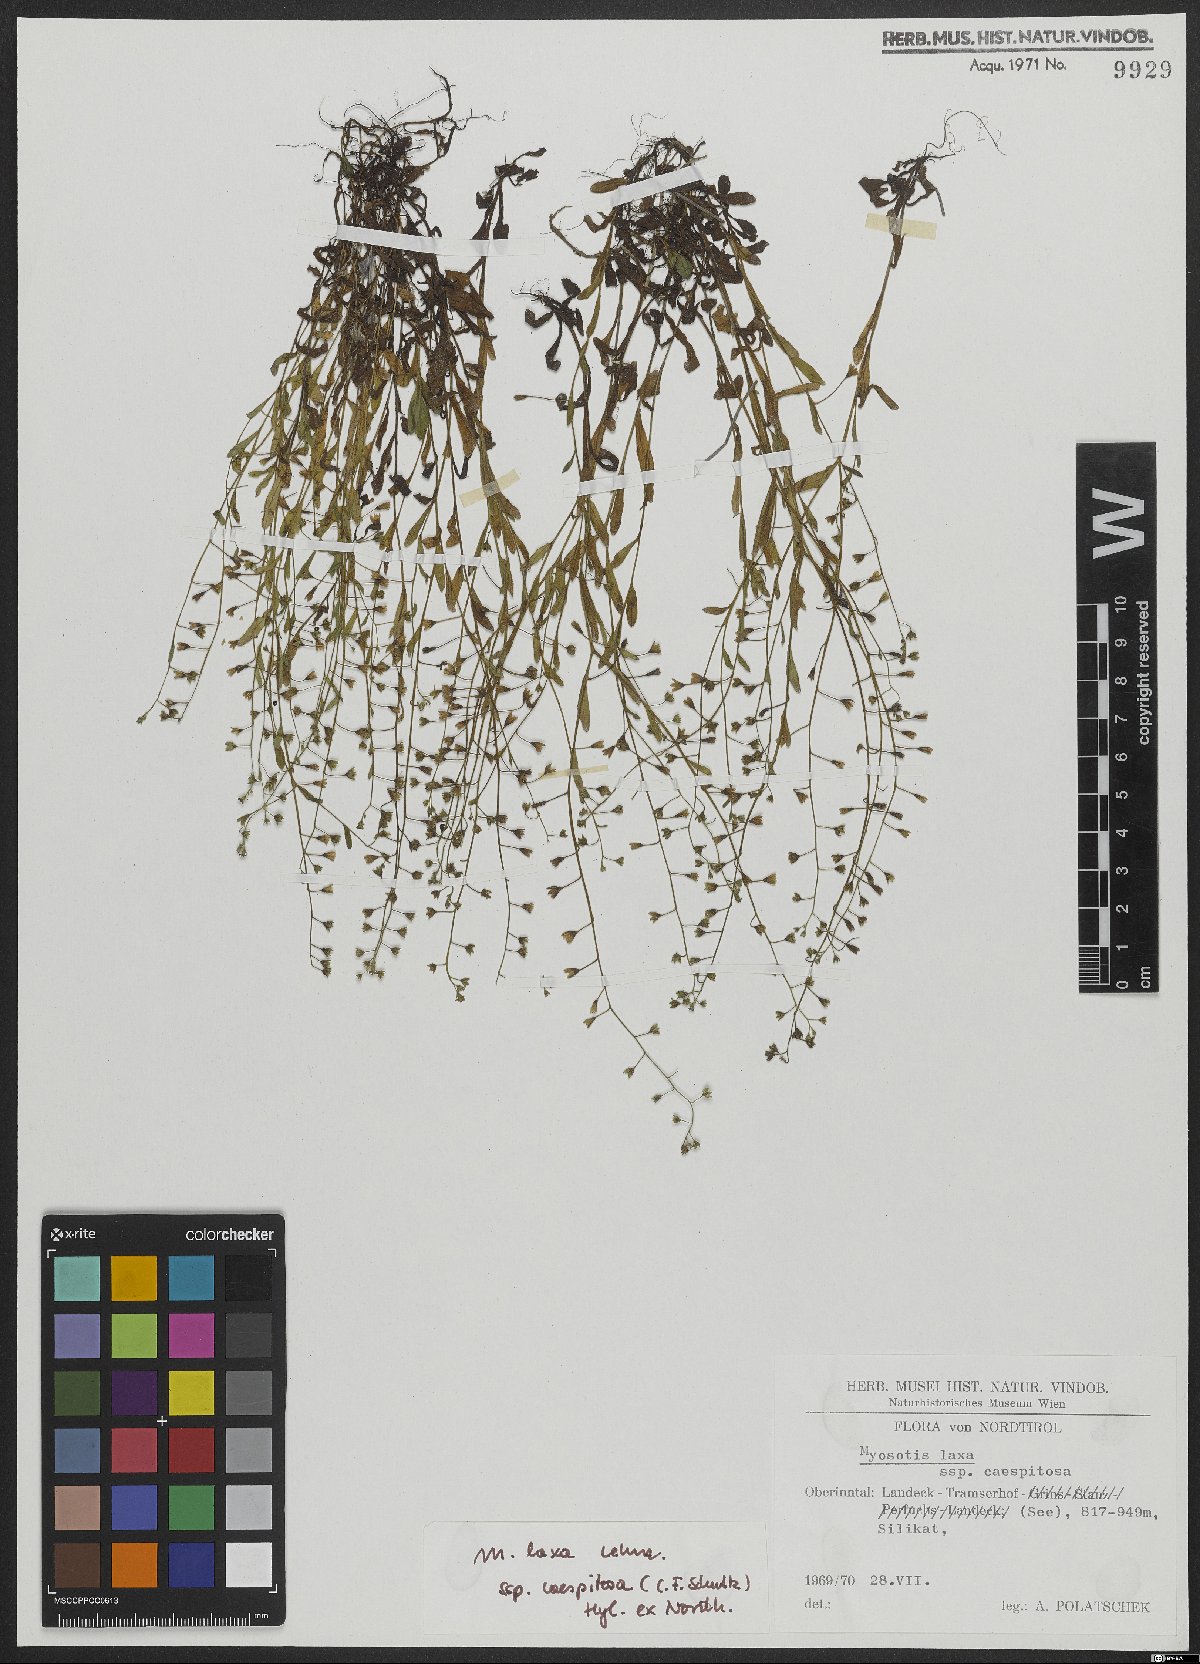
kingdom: Plantae
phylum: Tracheophyta
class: Magnoliopsida
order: Boraginales
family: Boraginaceae
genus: Myosotis
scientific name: Myosotis laxa
